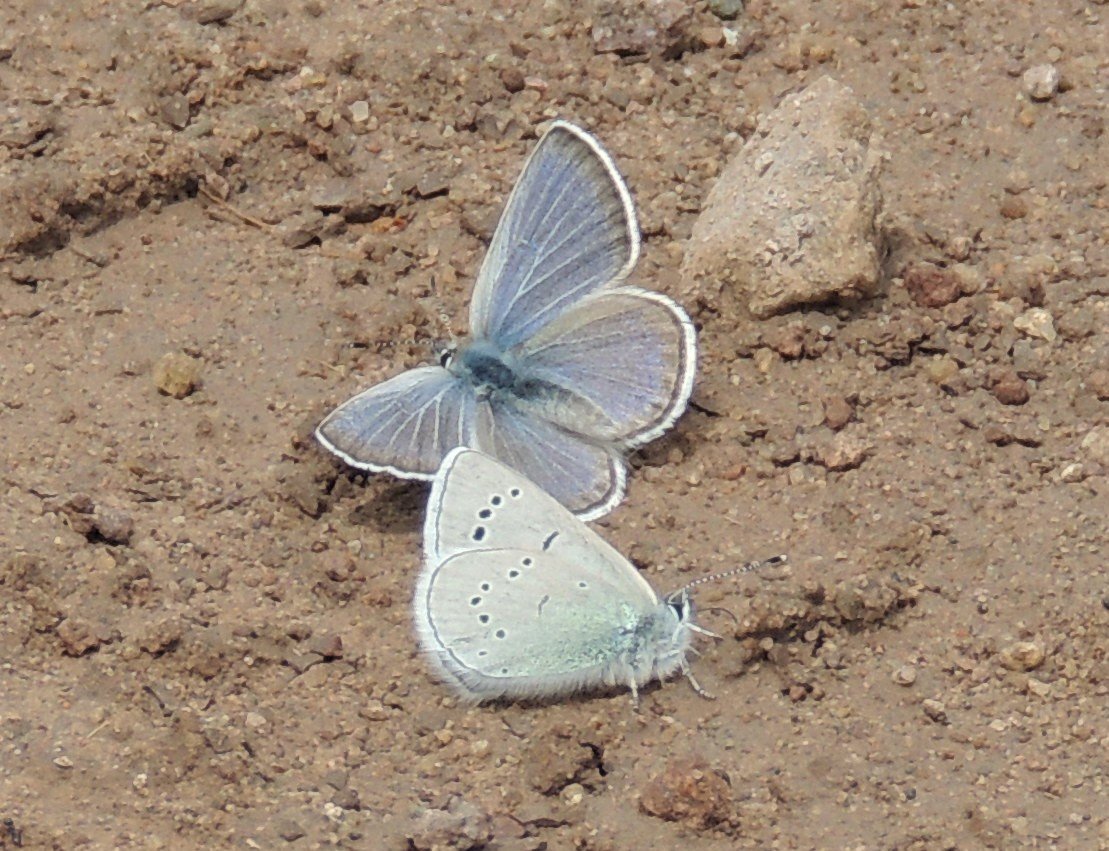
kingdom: Animalia
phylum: Arthropoda
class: Insecta
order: Lepidoptera
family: Lycaenidae
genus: Glaucopsyche
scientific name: Glaucopsyche lygdamus
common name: Silvery Blue
